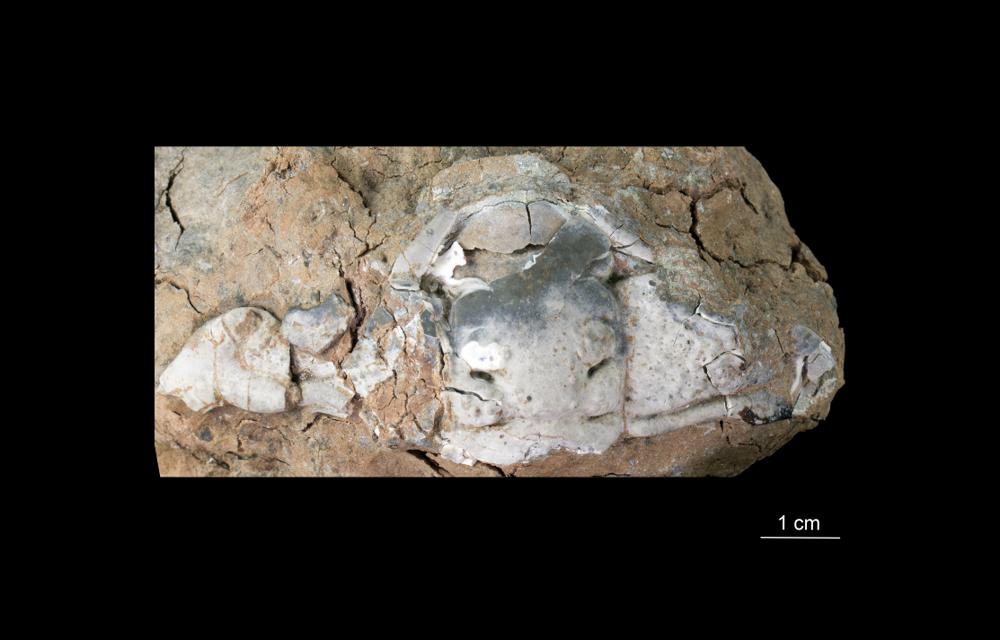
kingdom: Animalia
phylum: Arthropoda
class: Trilobita
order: Phacopida
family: Cheiruridae
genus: Paraceraurus
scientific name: Paraceraurus aculeatus
